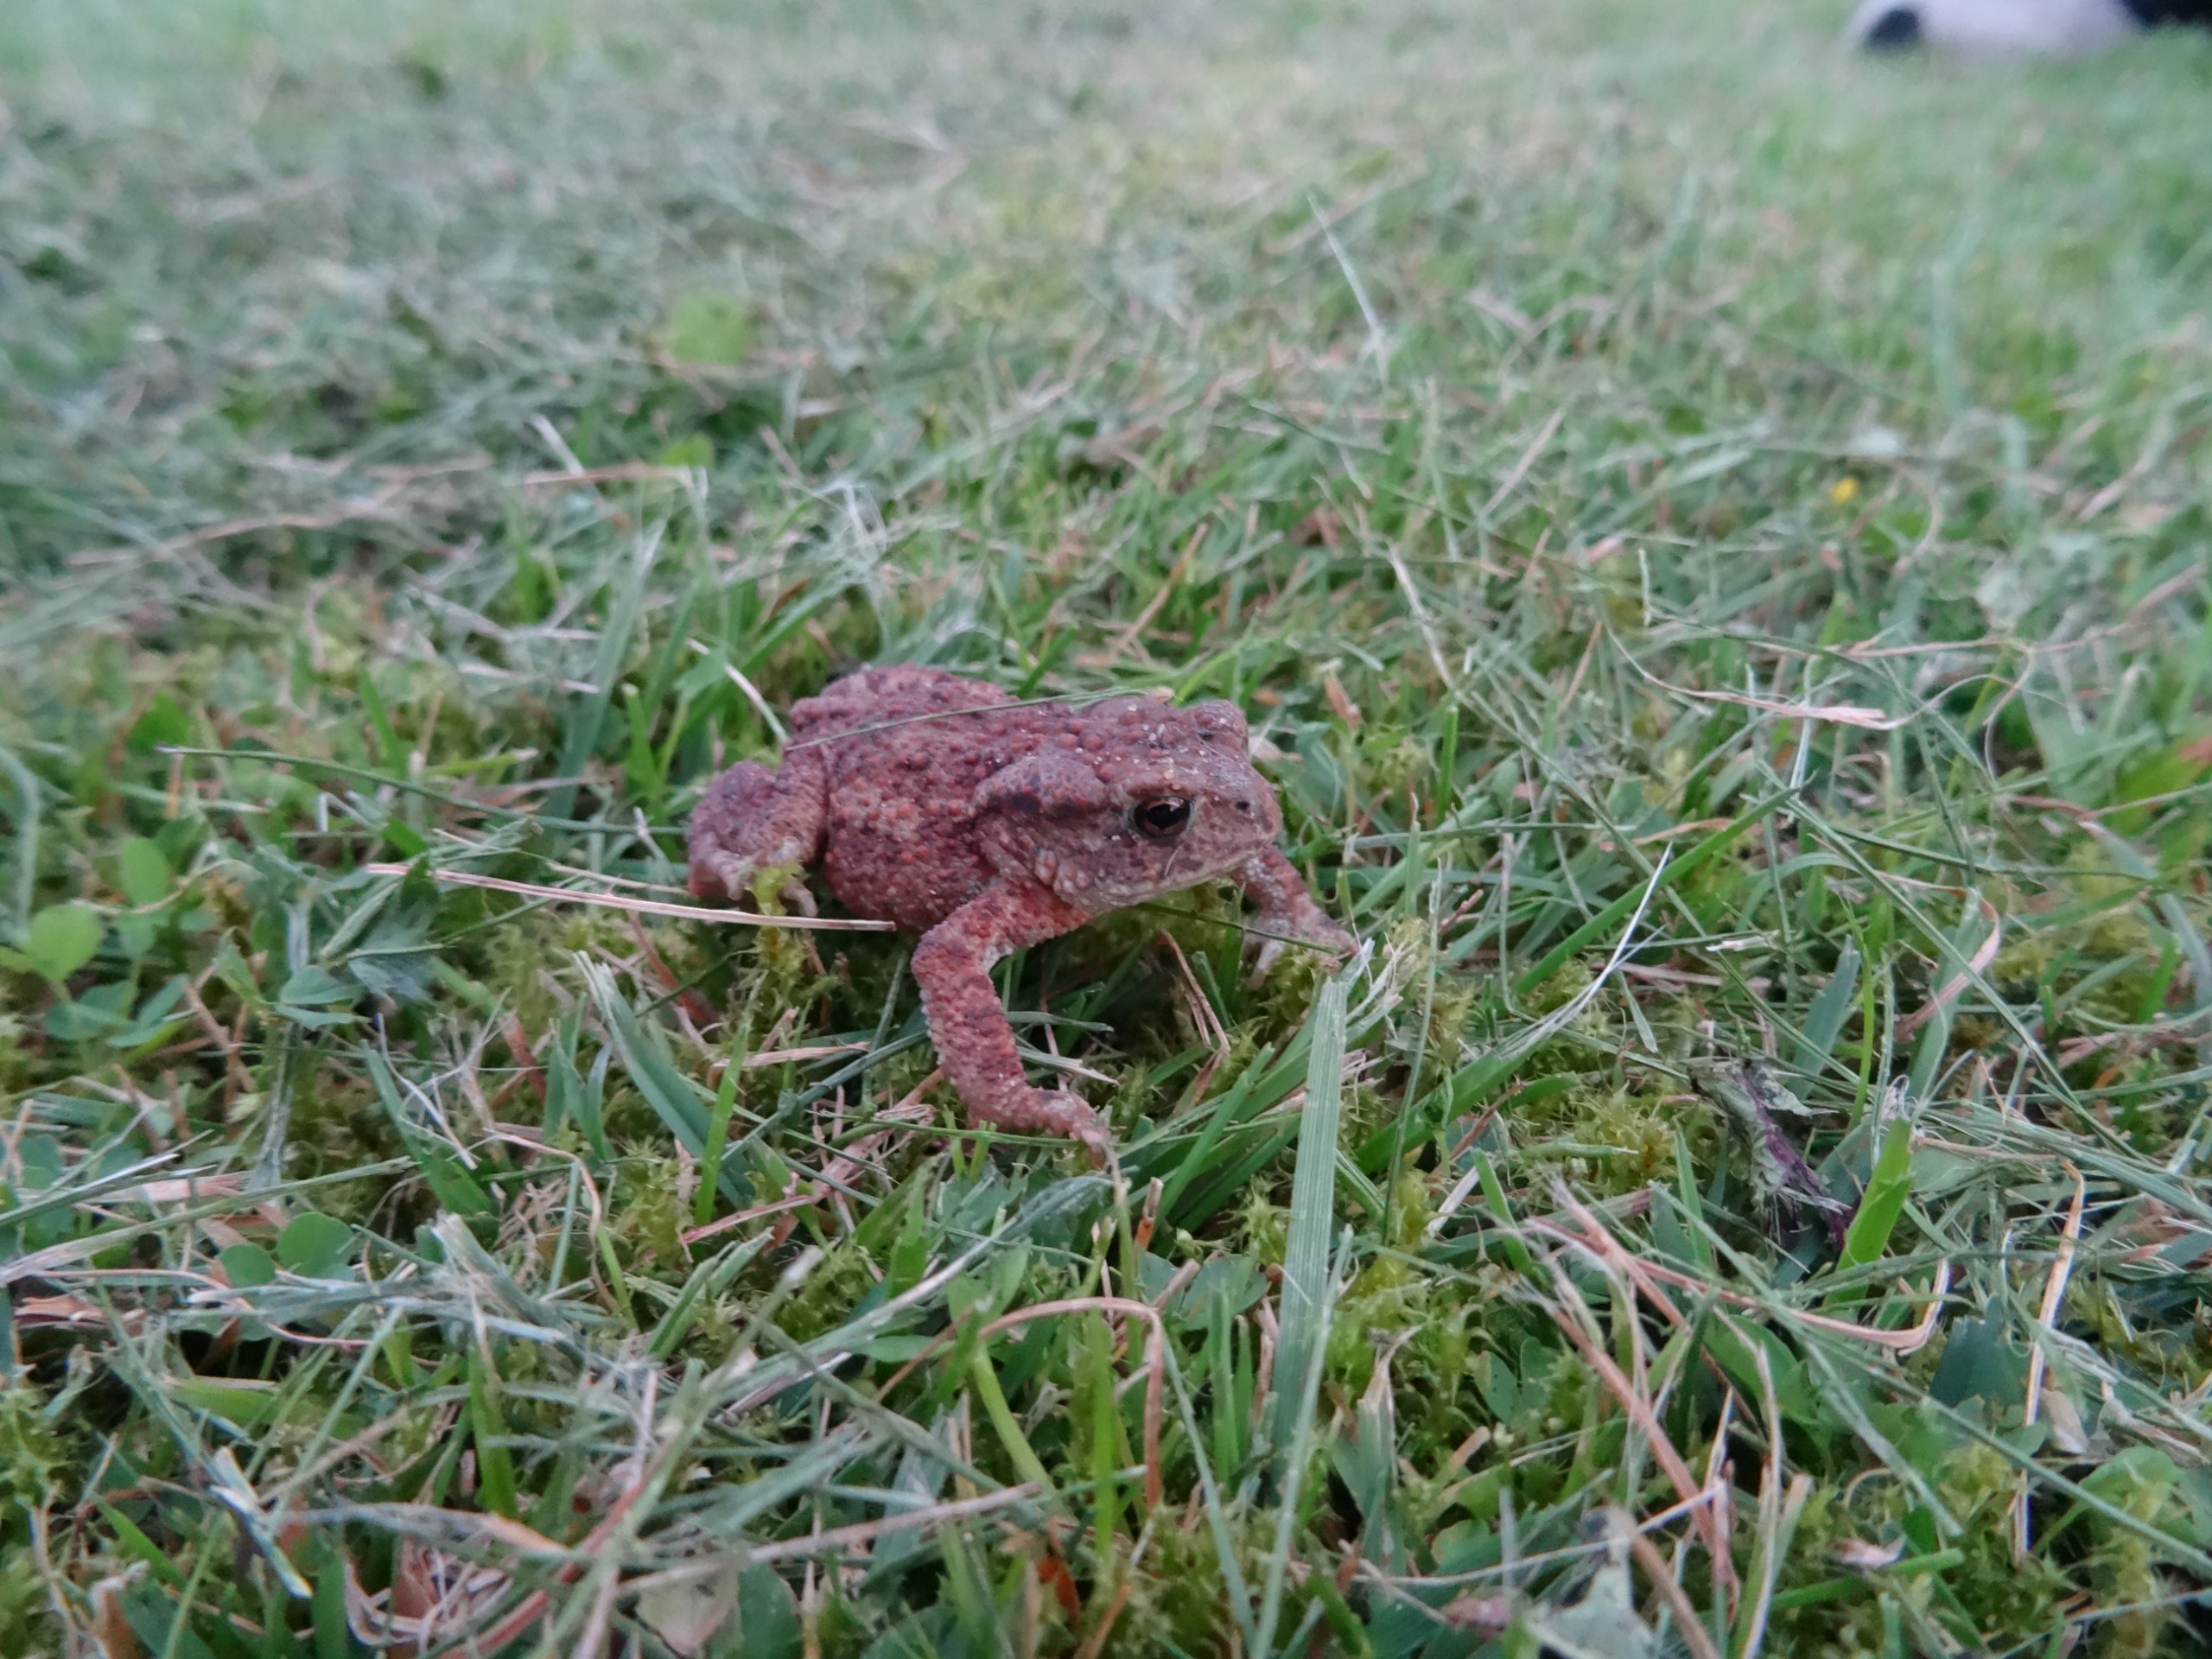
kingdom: Animalia
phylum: Chordata
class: Amphibia
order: Anura
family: Bufonidae
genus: Bufo
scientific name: Bufo bufo
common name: Skrubtudse
